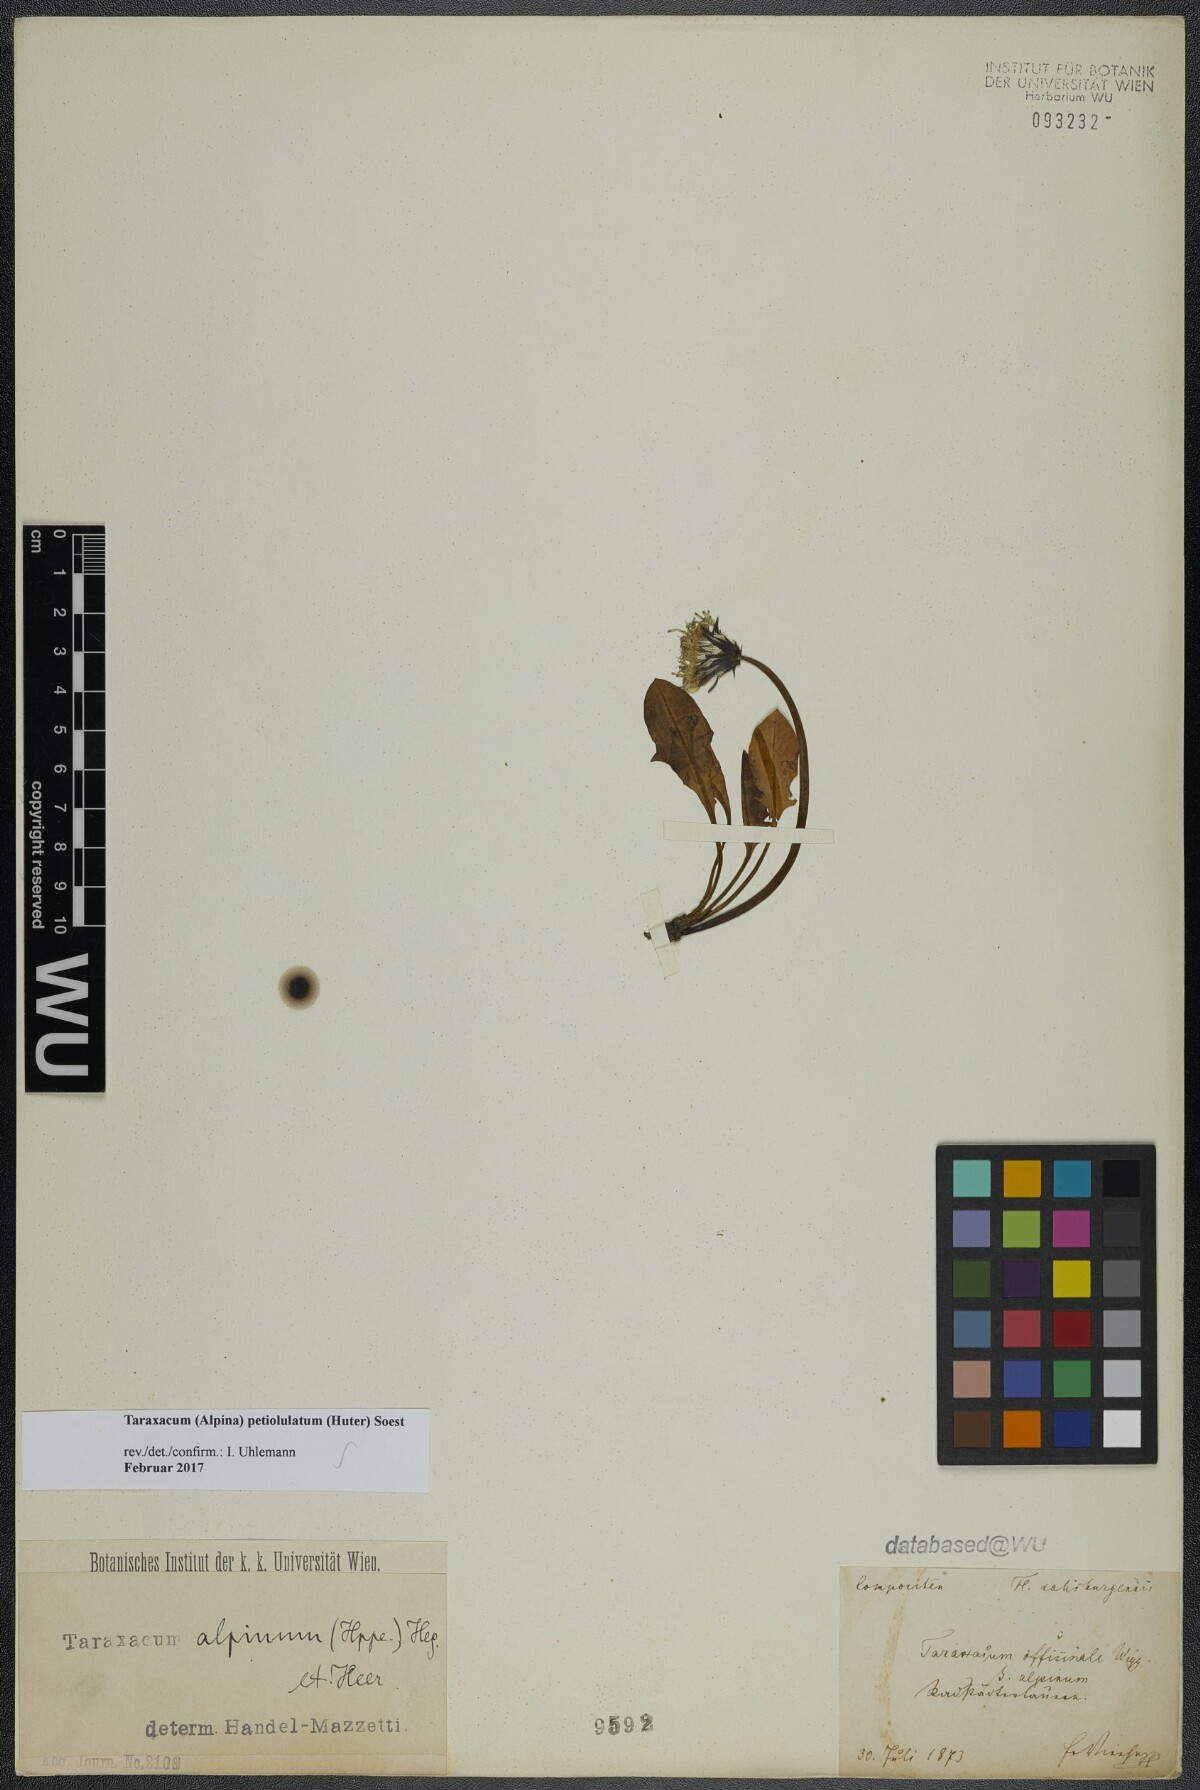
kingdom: Plantae
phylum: Tracheophyta
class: Magnoliopsida
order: Asterales
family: Asteraceae
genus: Taraxacum
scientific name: Taraxacum petiolulatum
